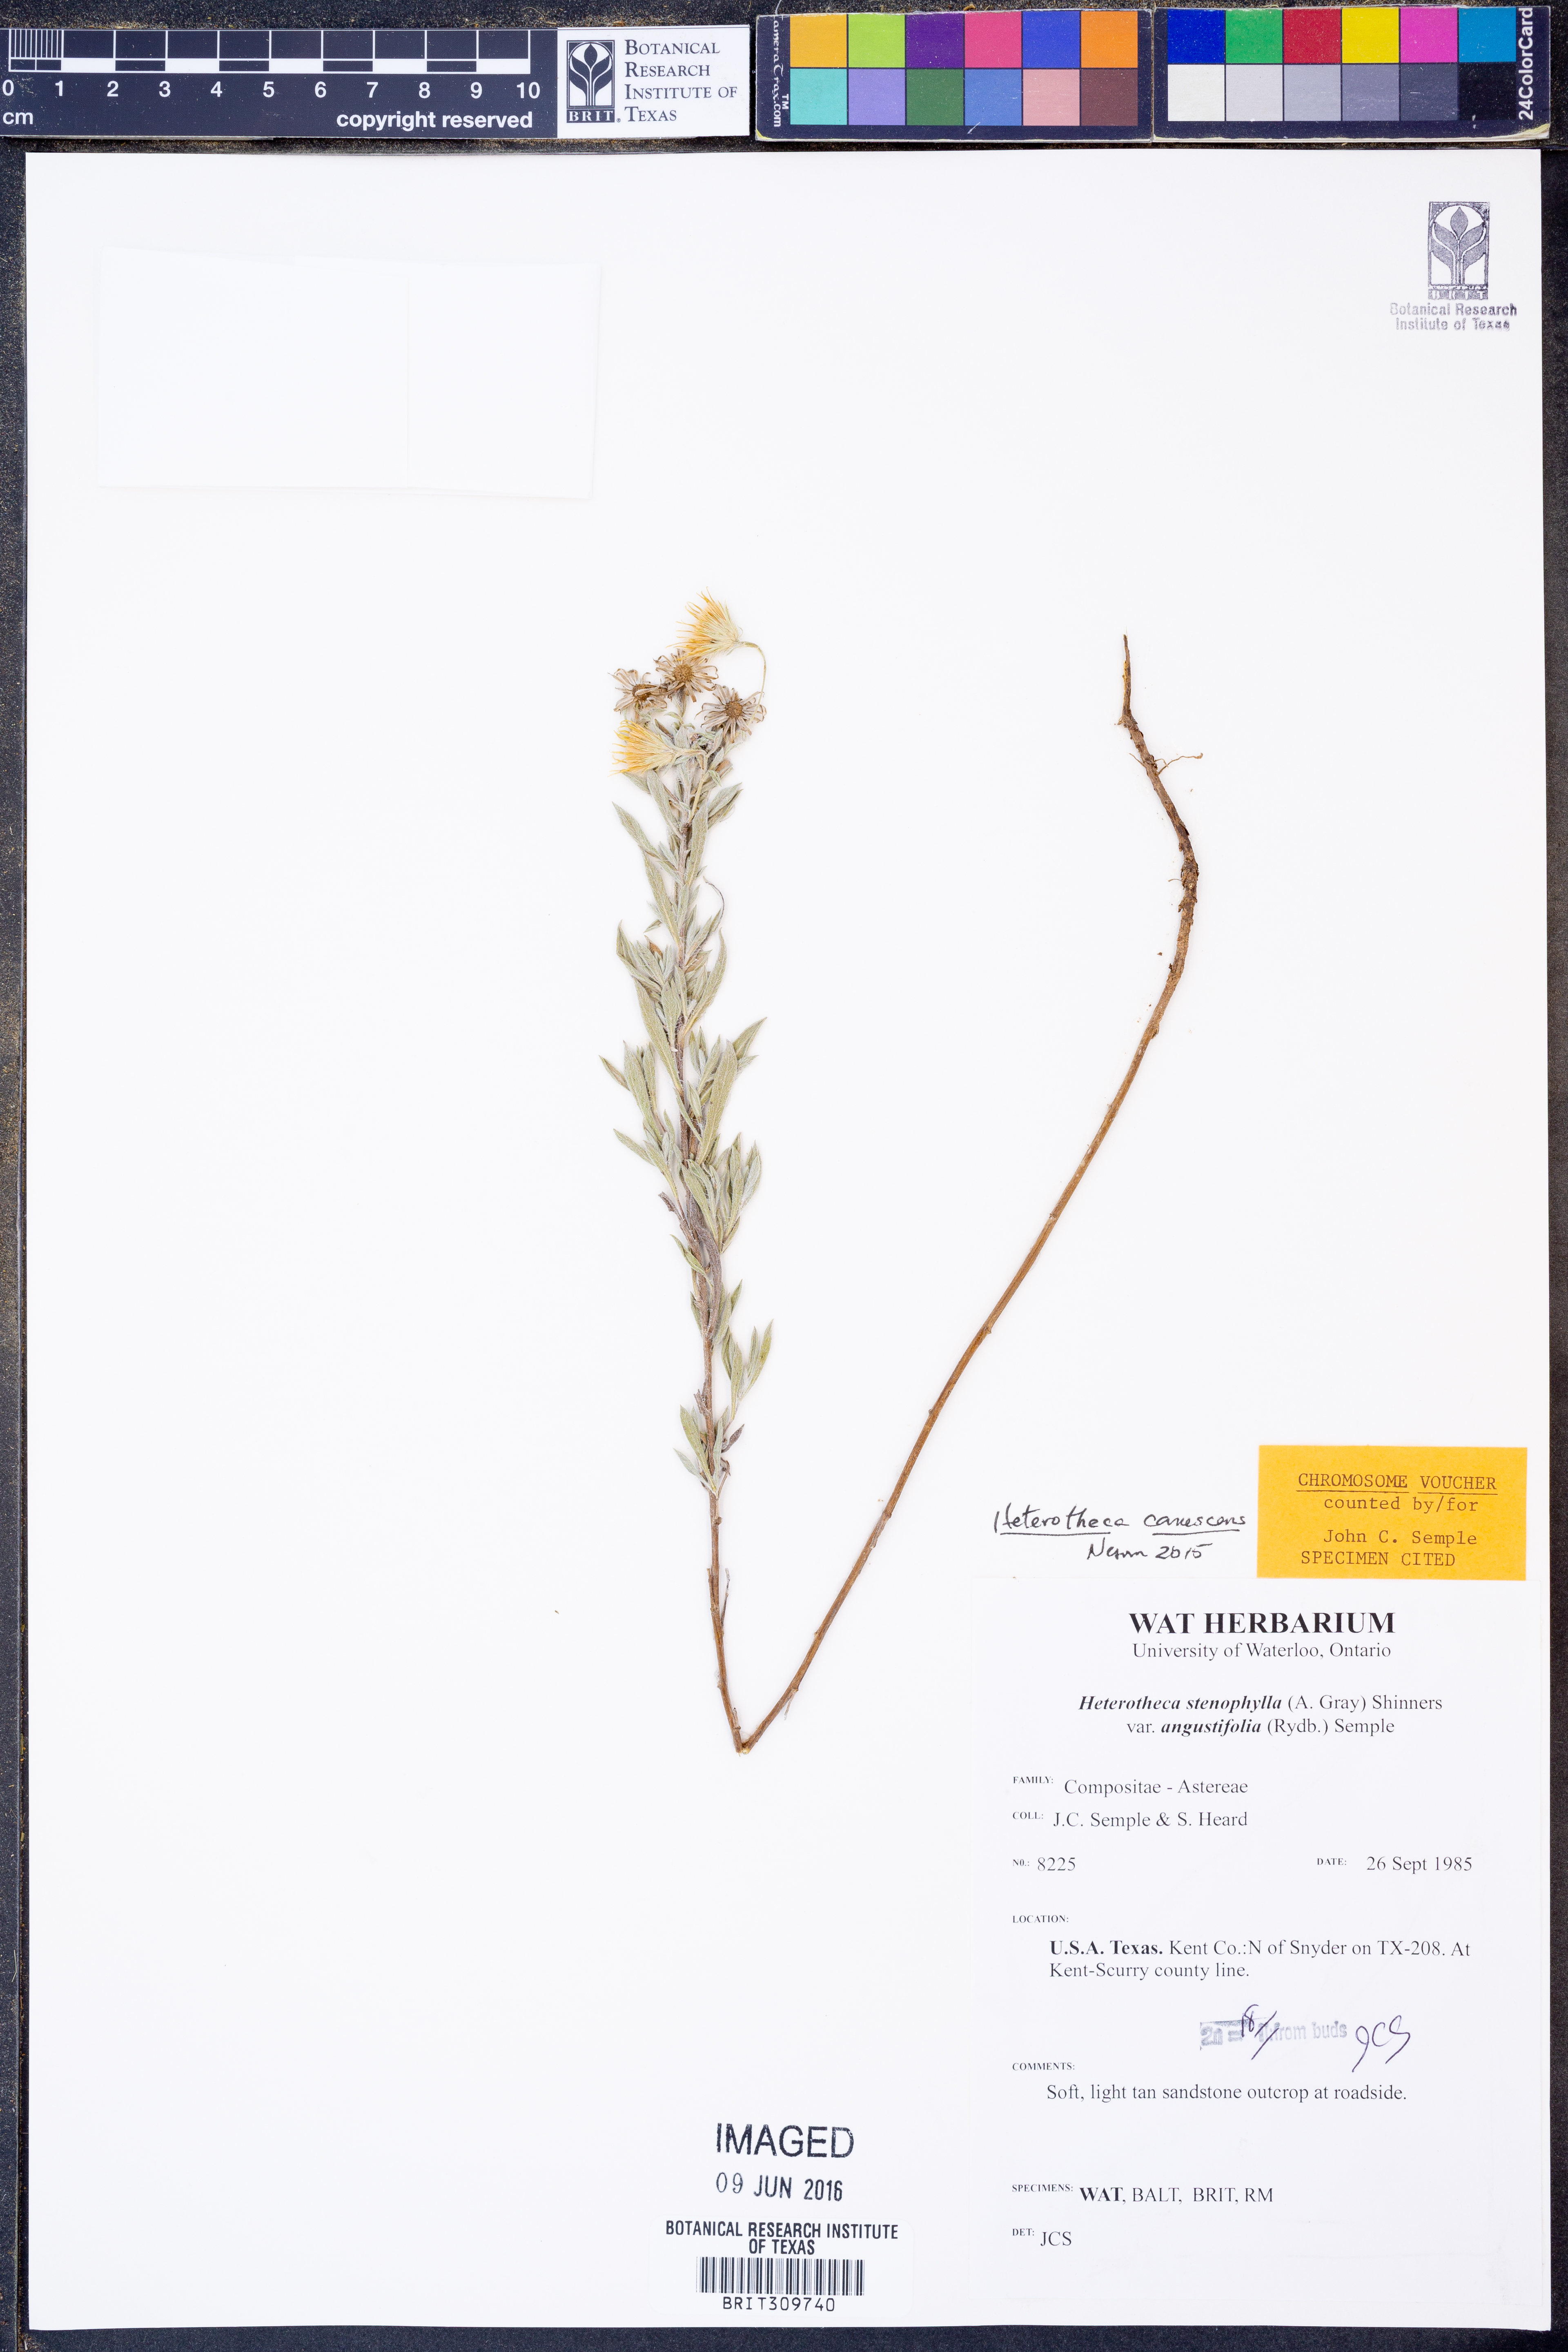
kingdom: Plantae
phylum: Tracheophyta
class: Magnoliopsida
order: Asterales
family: Asteraceae
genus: Heterotheca
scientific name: Heterotheca canescens
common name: Hoary golden-aster
